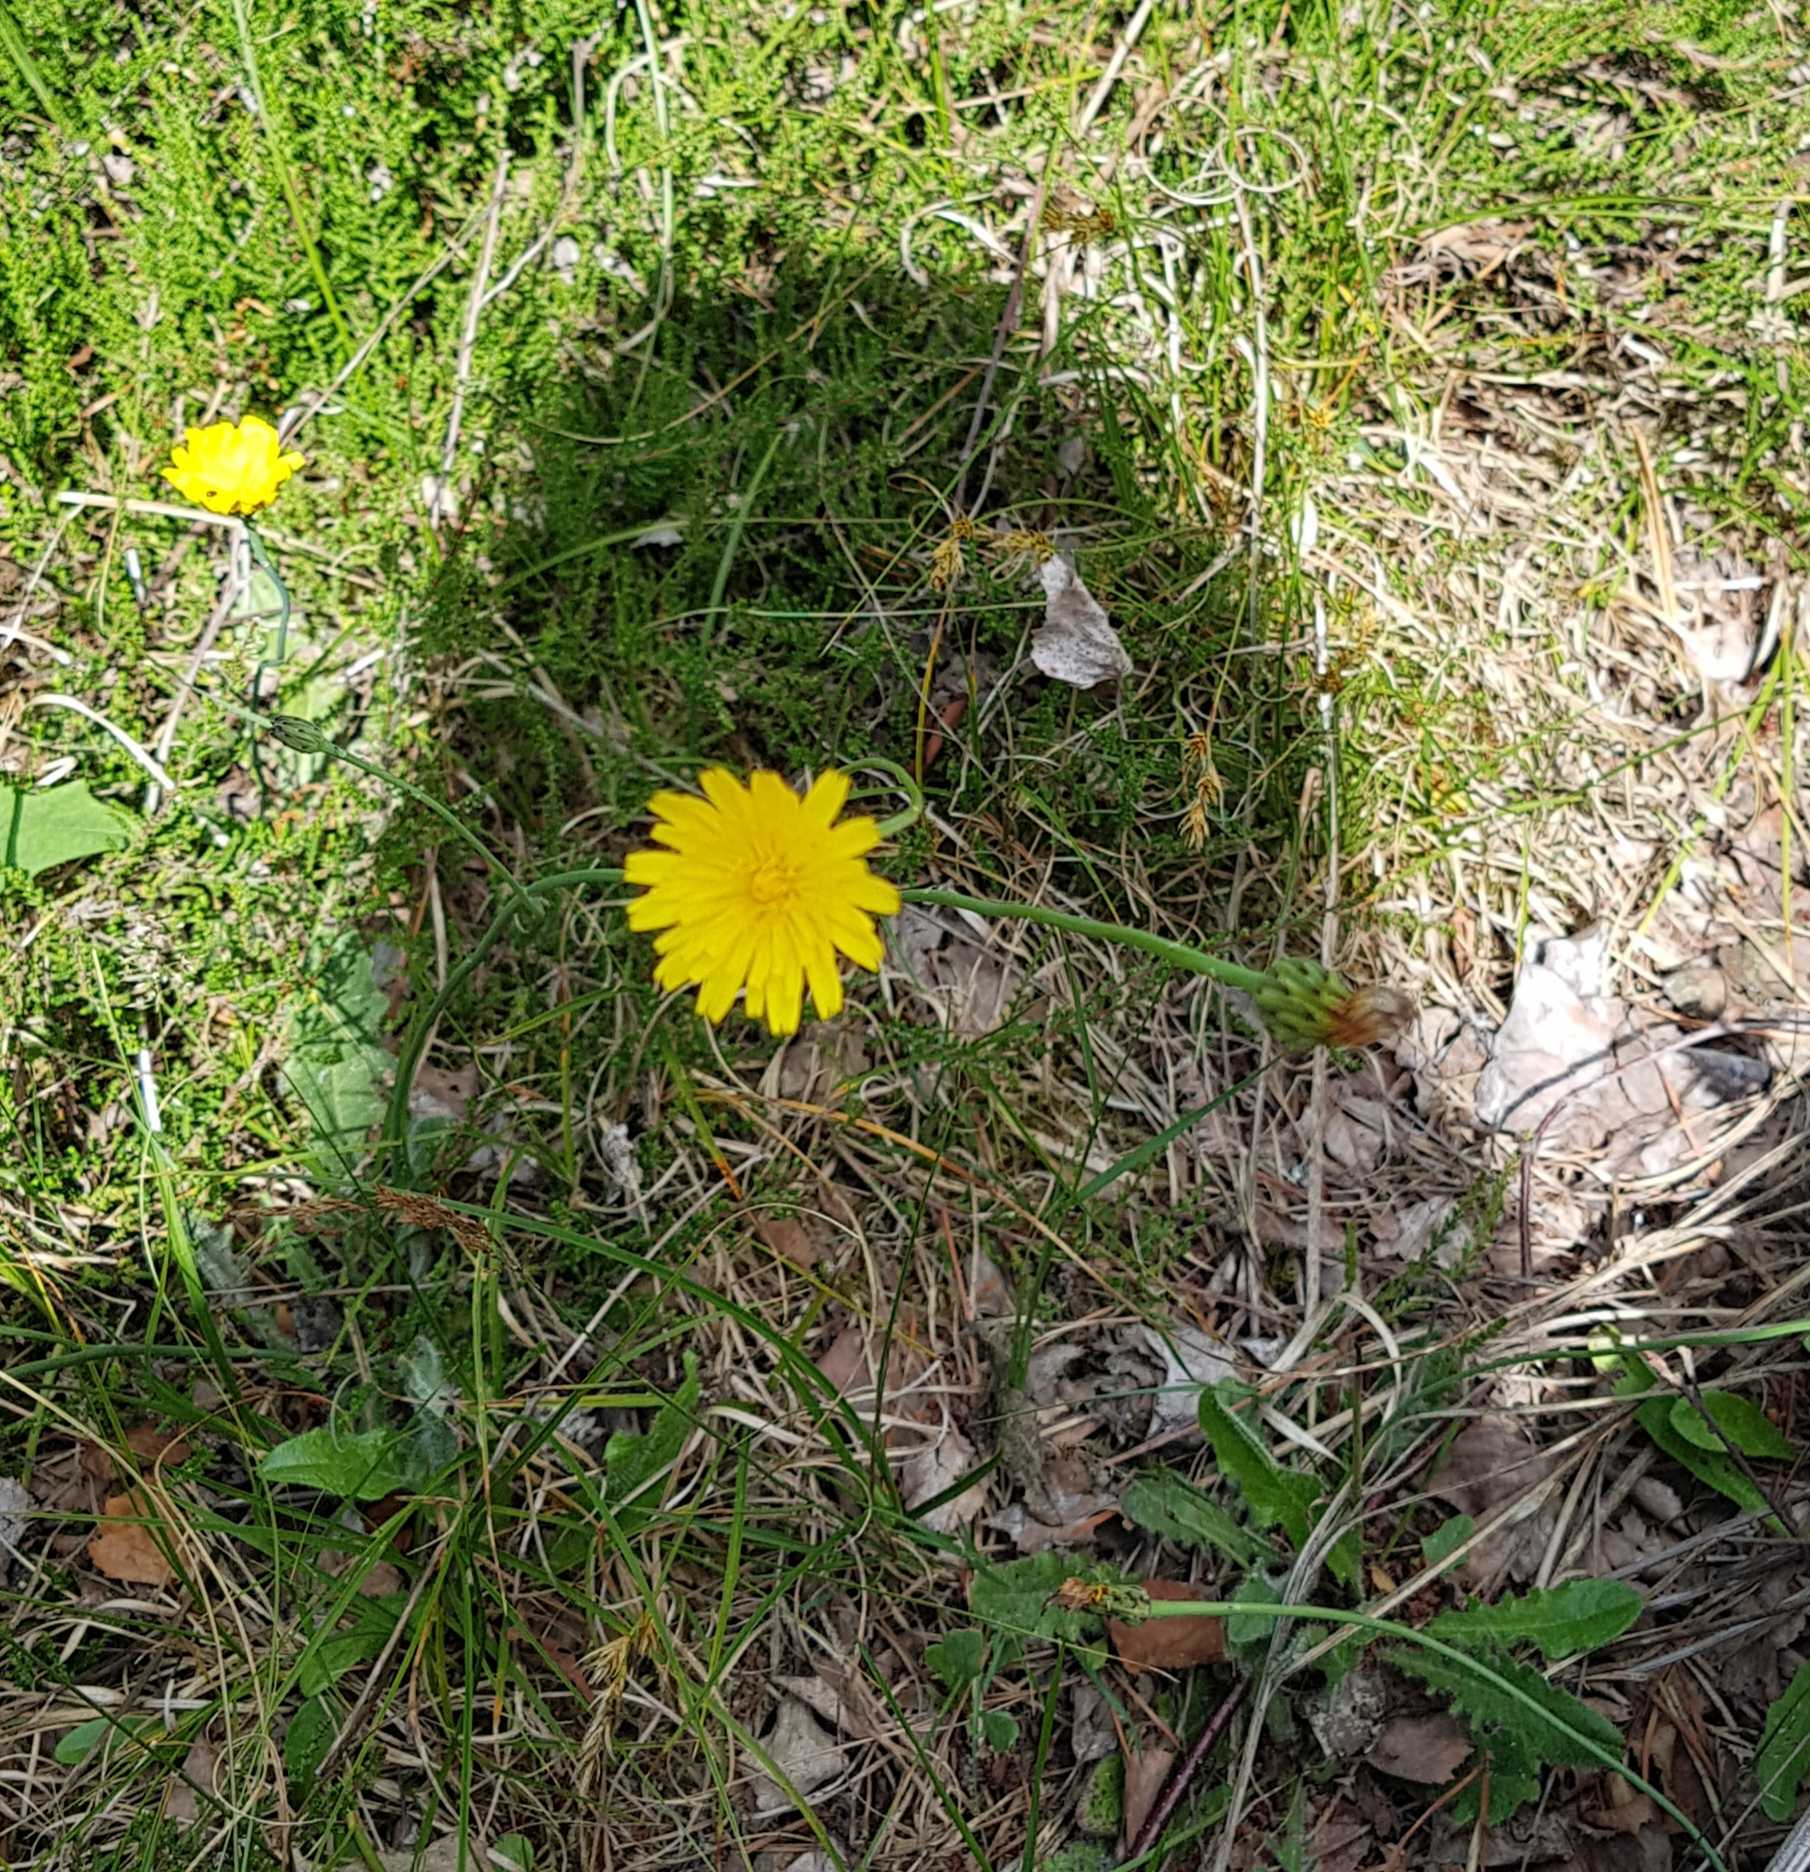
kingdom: Plantae
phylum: Tracheophyta
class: Magnoliopsida
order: Asterales
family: Asteraceae
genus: Hypochaeris
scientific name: Hypochaeris radicata
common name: Almindelig kongepen
